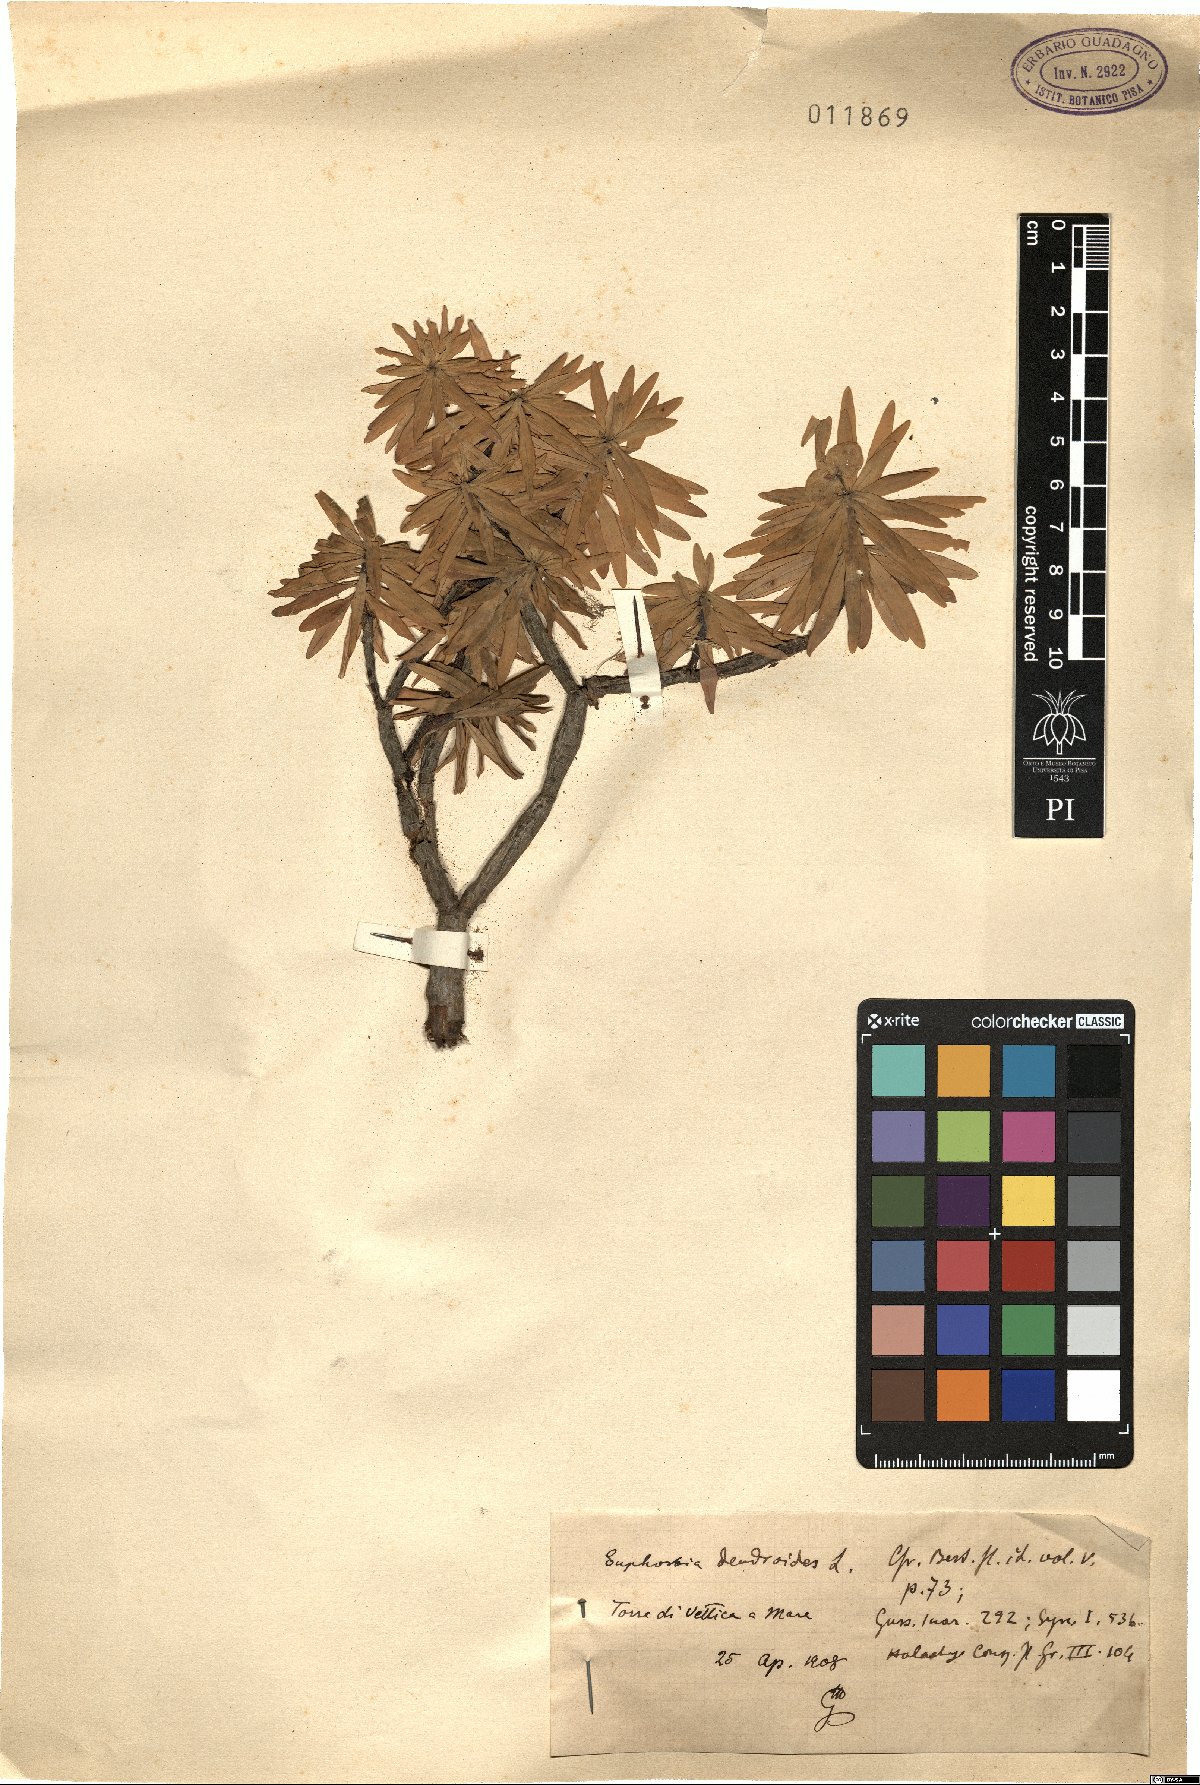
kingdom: Plantae
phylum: Tracheophyta
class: Magnoliopsida
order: Malpighiales
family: Euphorbiaceae
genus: Euphorbia
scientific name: Euphorbia dendroides
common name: Tree spurge
